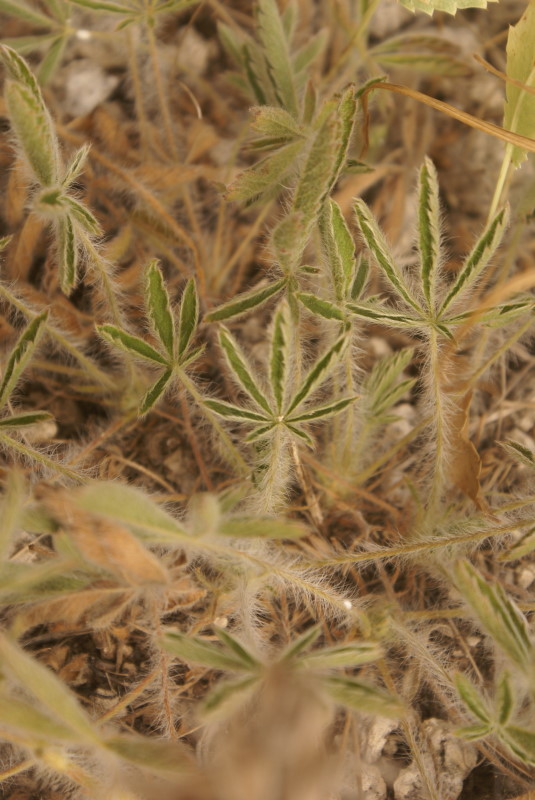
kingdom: Plantae
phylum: Tracheophyta
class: Magnoliopsida
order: Rosales
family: Rosaceae
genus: Potentilla
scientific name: Potentilla
